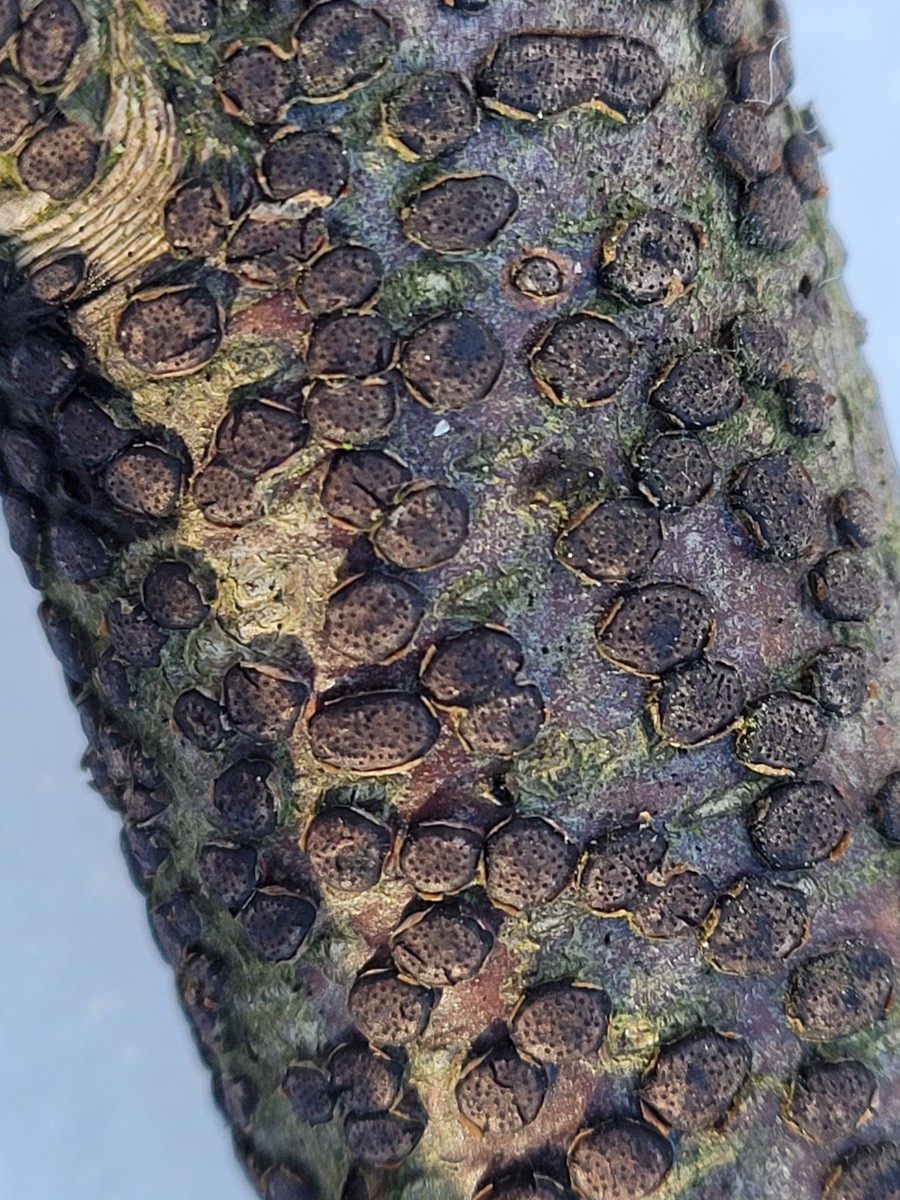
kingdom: Fungi
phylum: Ascomycota
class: Sordariomycetes
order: Xylariales
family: Diatrypaceae
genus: Diatrype
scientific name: Diatrype disciformis
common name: kant-kulskorpe
